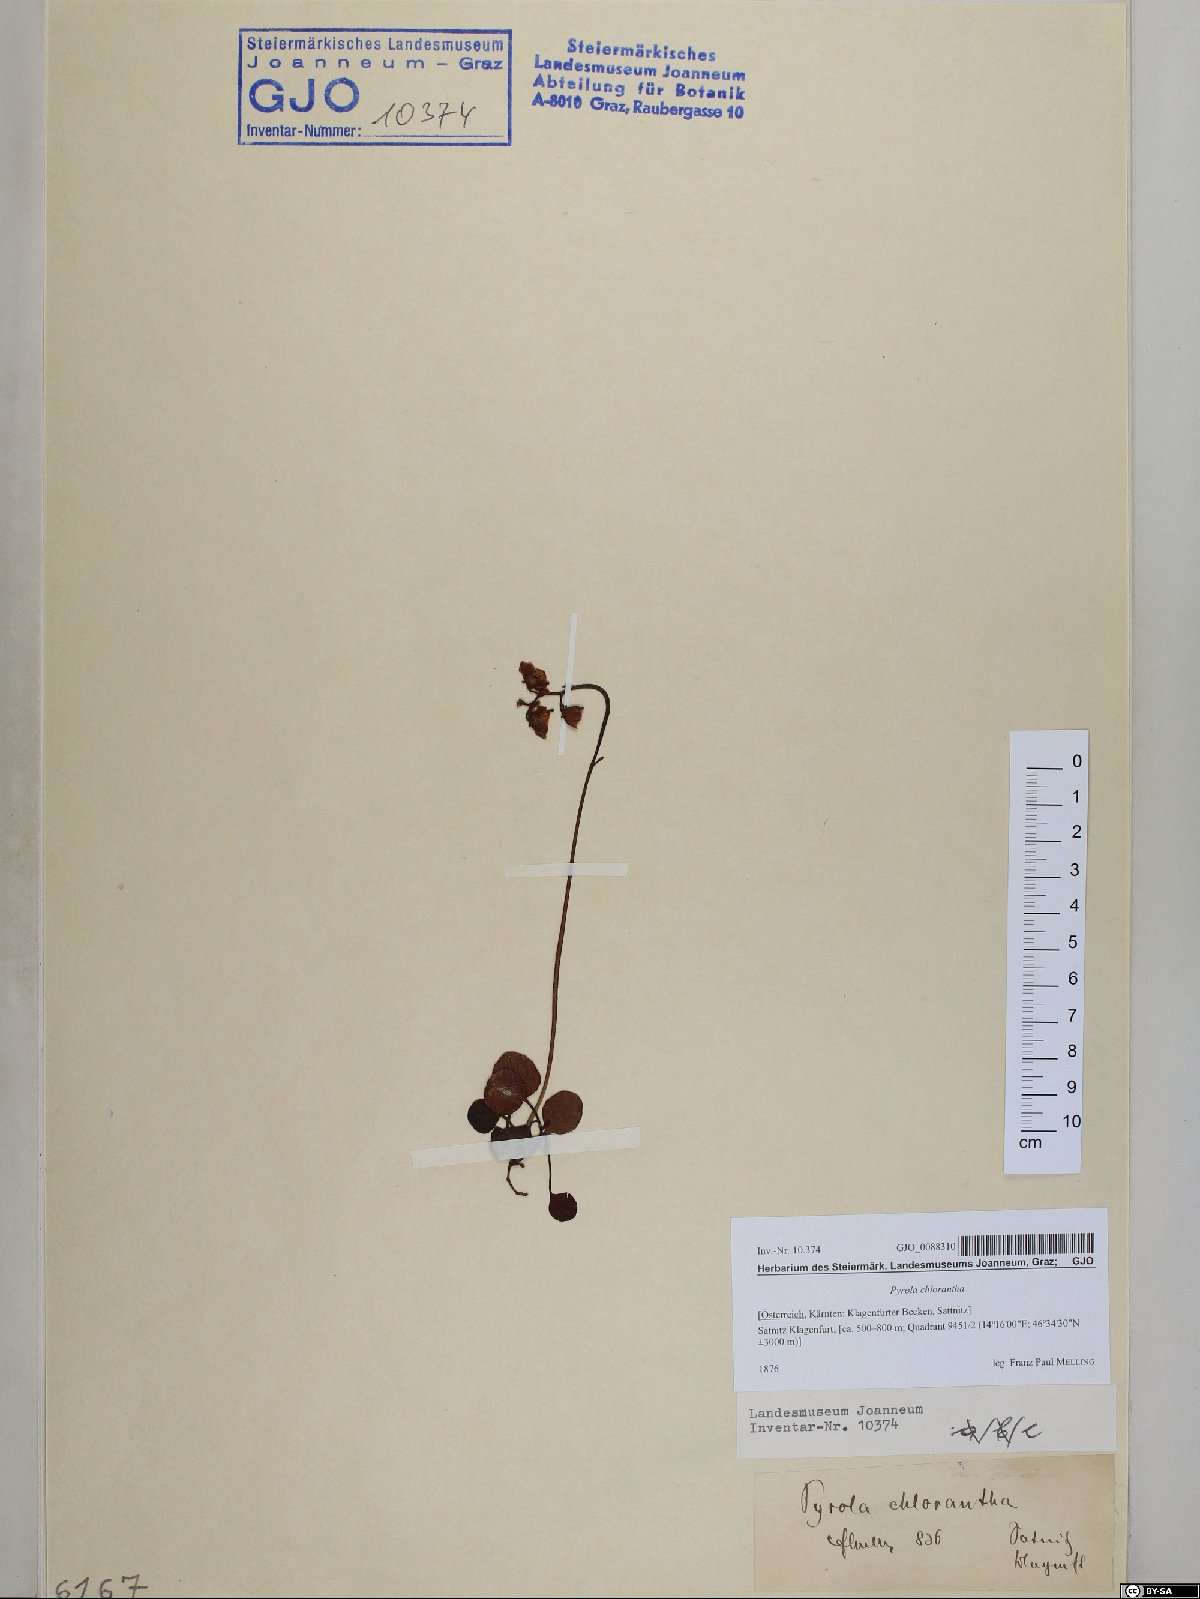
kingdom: Plantae
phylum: Tracheophyta
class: Magnoliopsida
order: Ericales
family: Ericaceae
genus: Pyrola
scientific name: Pyrola chlorantha
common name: Green wintergreen
